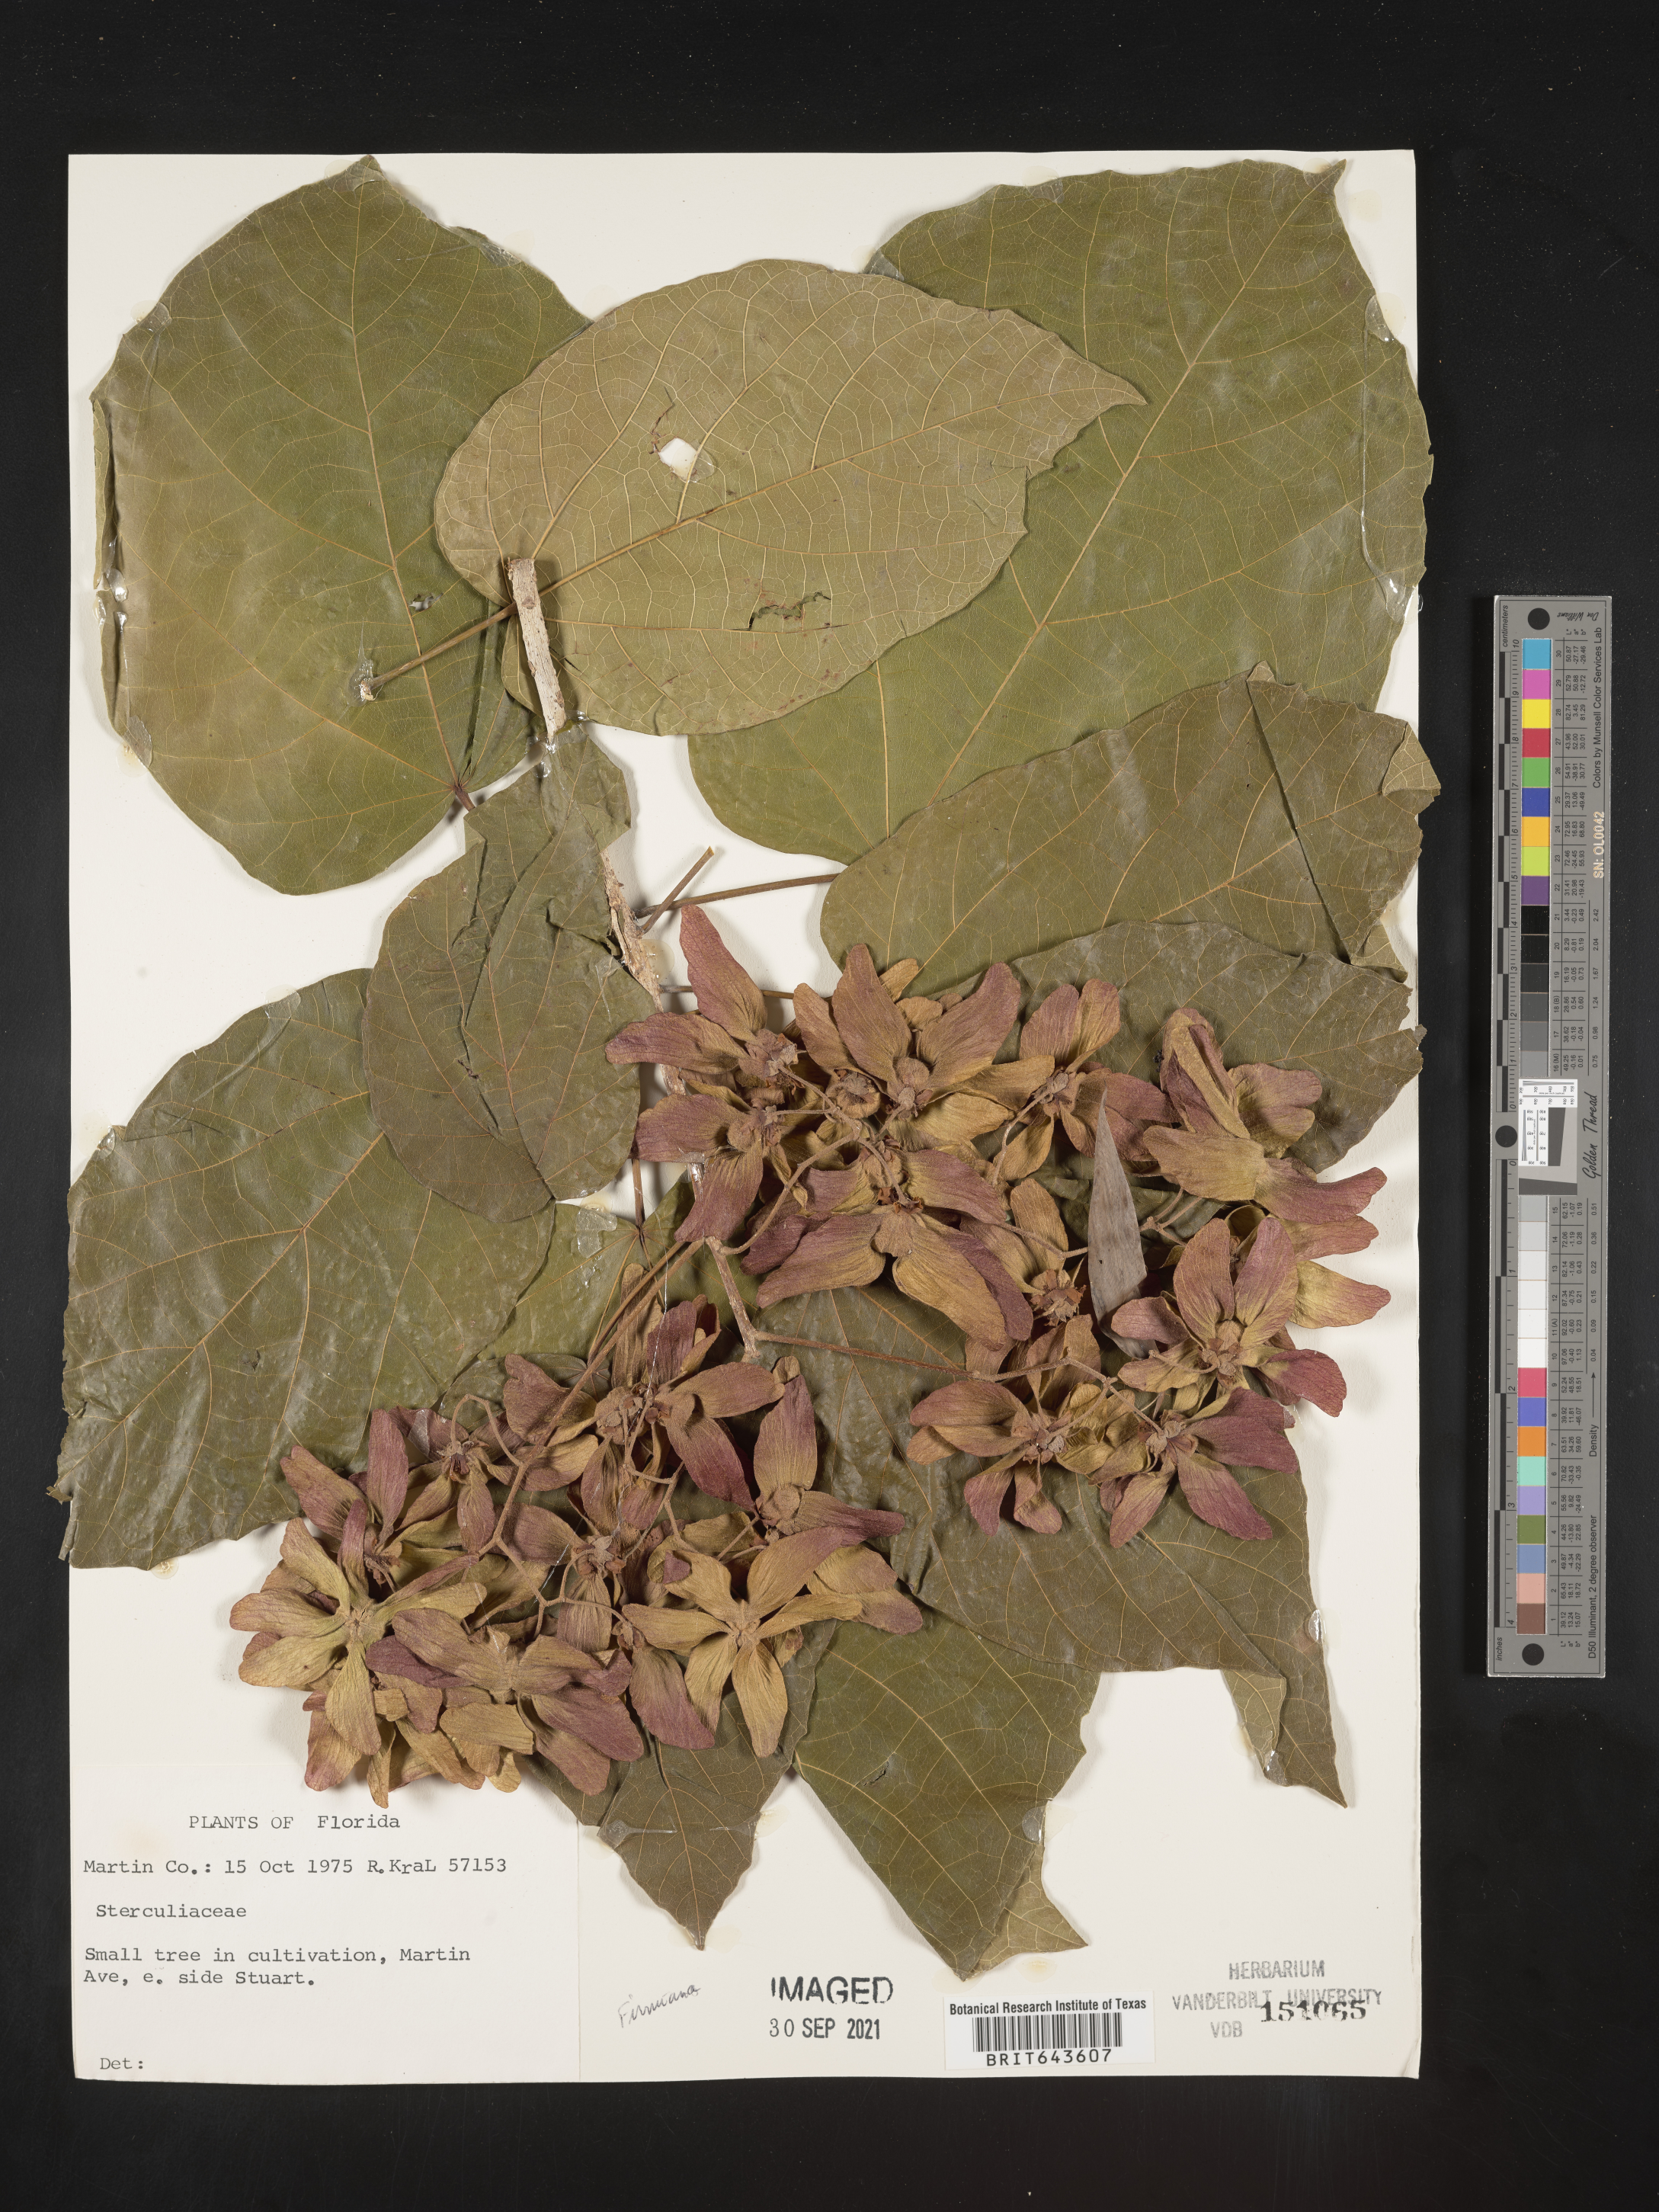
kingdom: Plantae
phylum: Tracheophyta
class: Magnoliopsida
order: Malvales
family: Malvaceae
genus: Sterculia
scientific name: Sterculia
